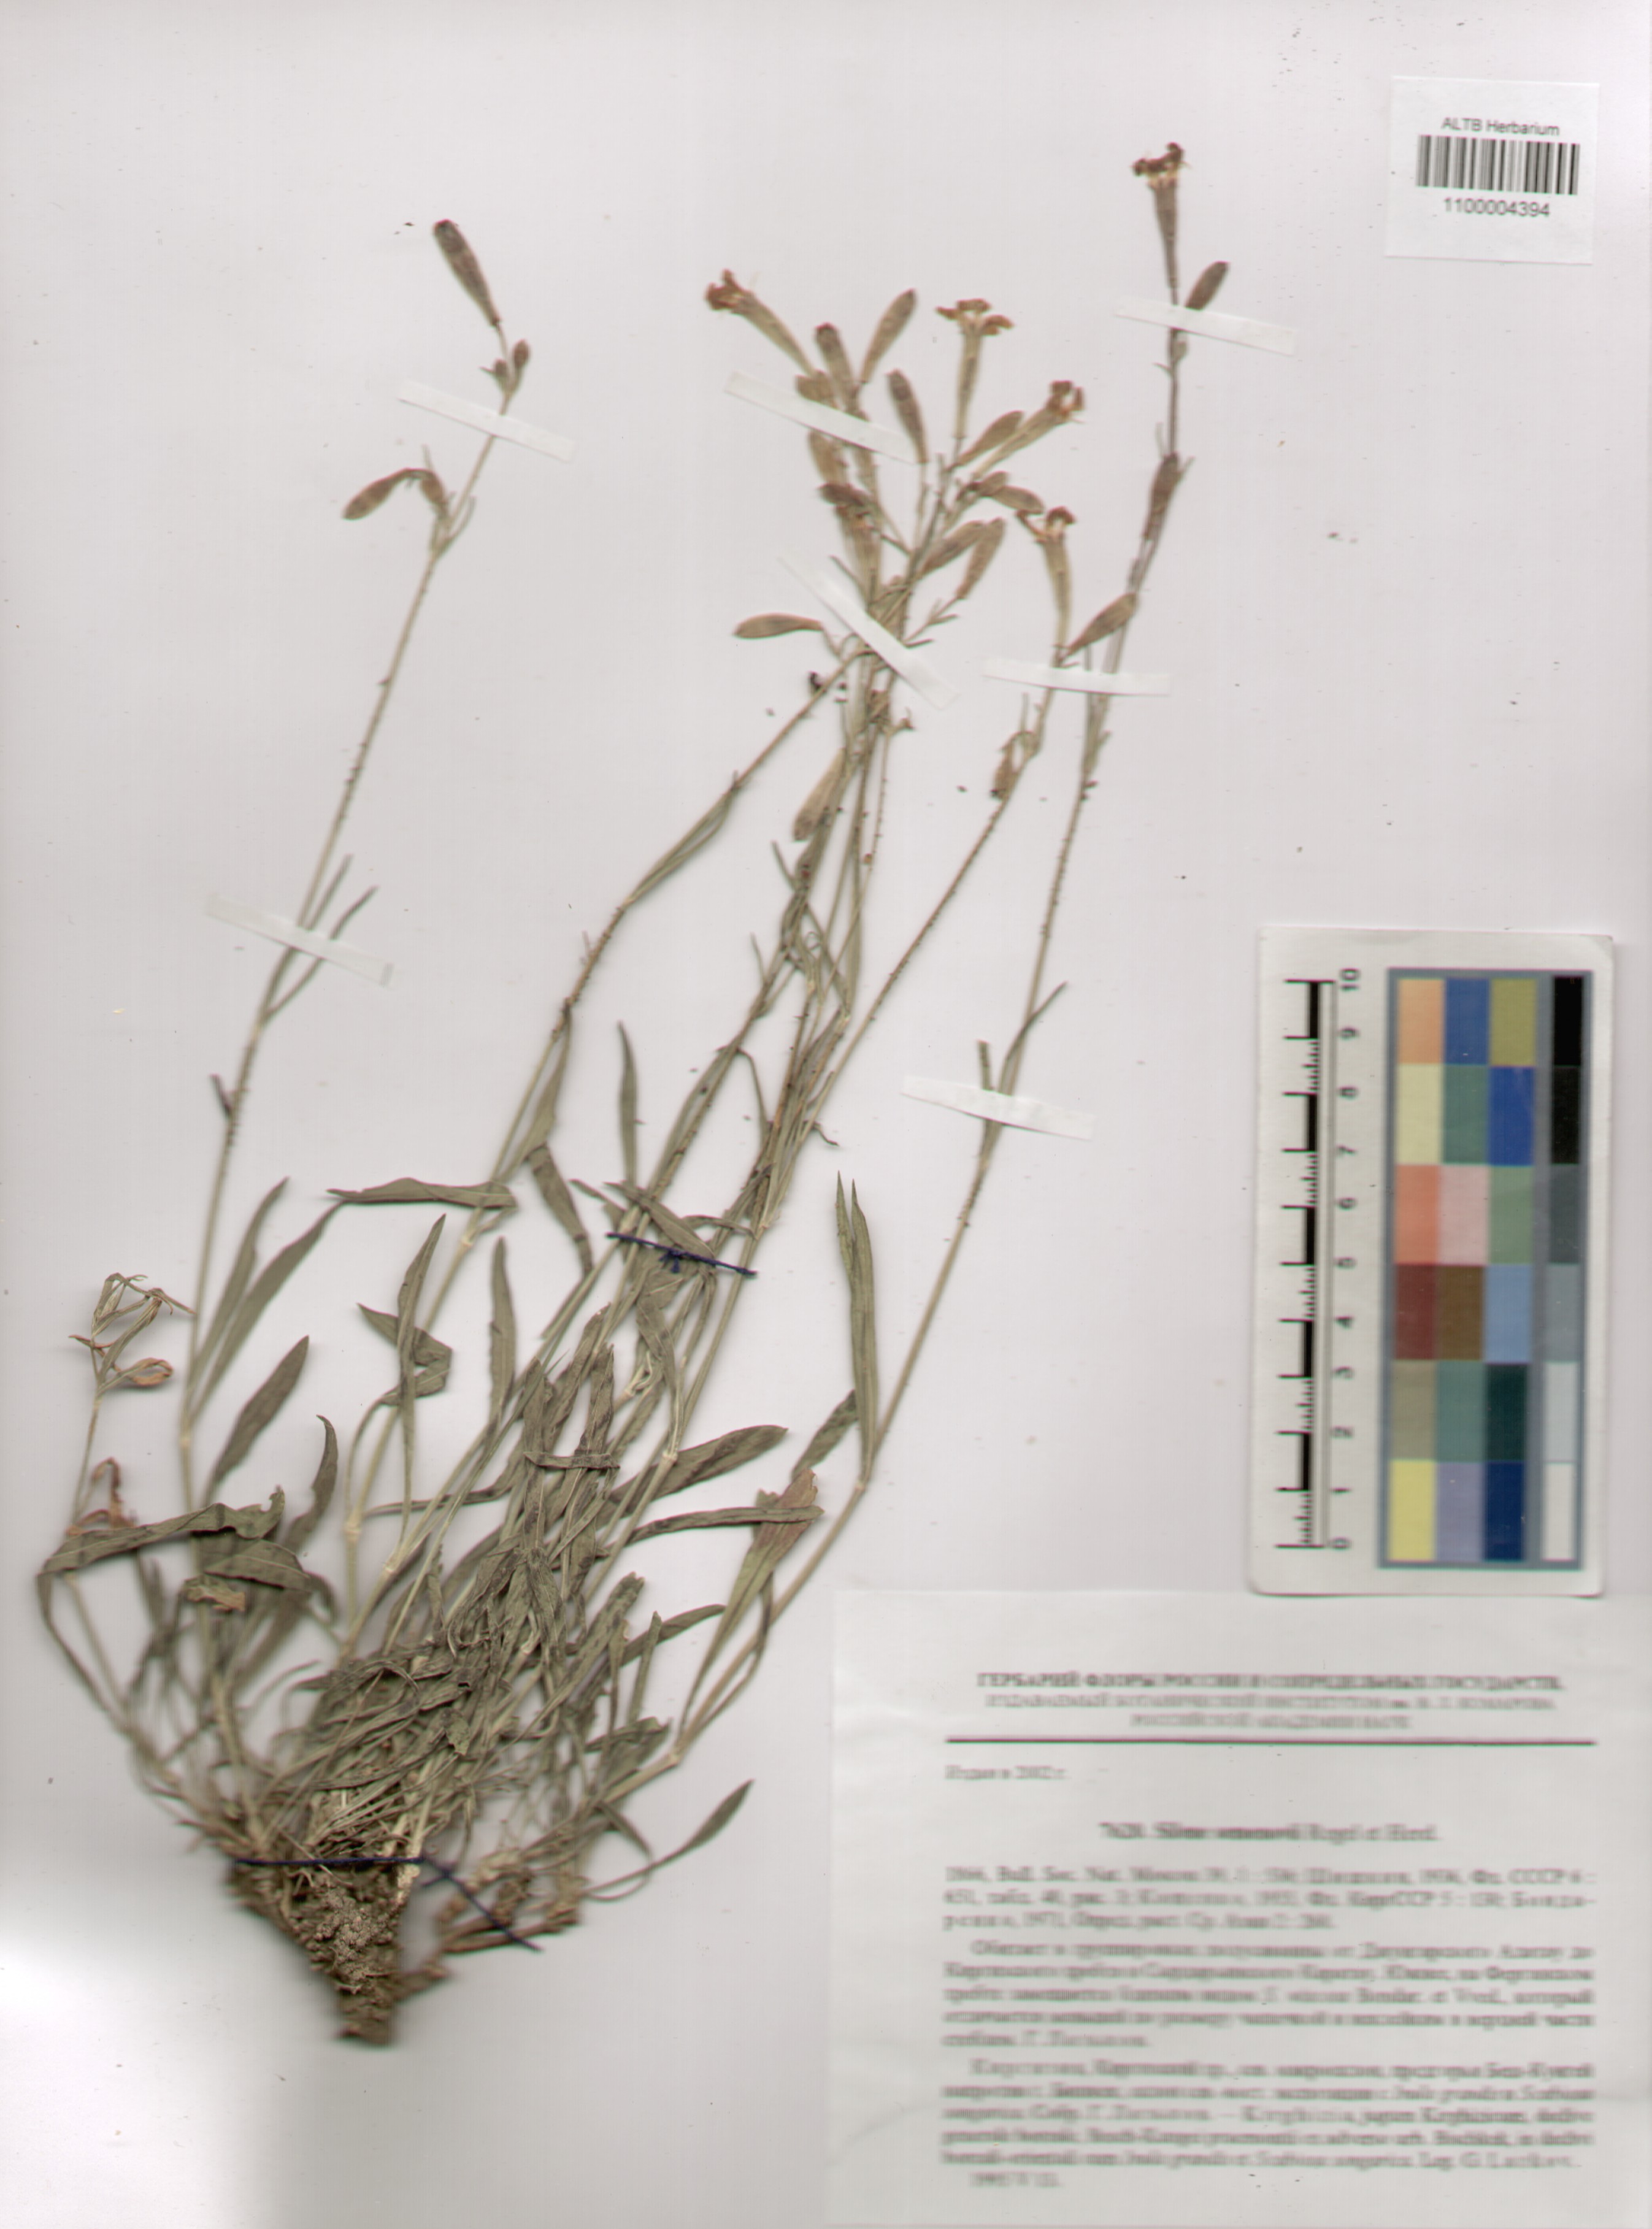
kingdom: Plantae
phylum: Tracheophyta
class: Magnoliopsida
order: Caryophyllales
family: Caryophyllaceae
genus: Silene
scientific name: Silene semenovii
